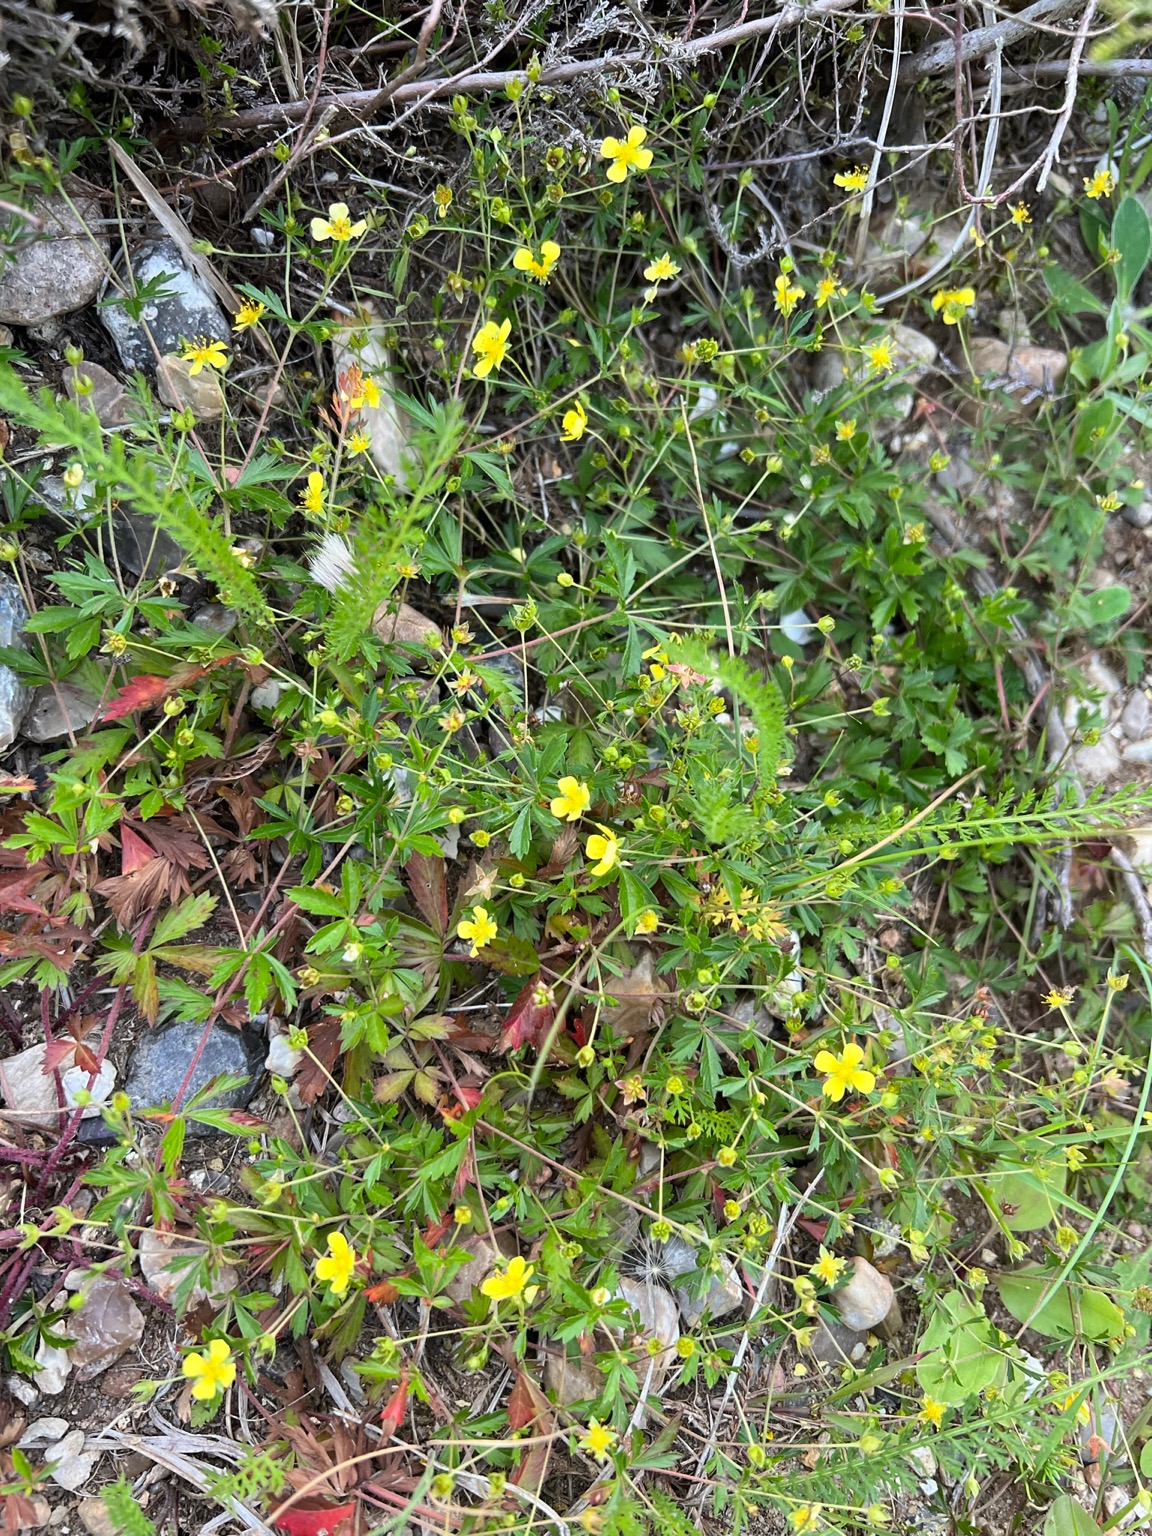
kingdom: Plantae
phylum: Tracheophyta
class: Magnoliopsida
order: Rosales
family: Rosaceae
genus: Potentilla
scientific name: Potentilla erecta
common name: Tormentil
